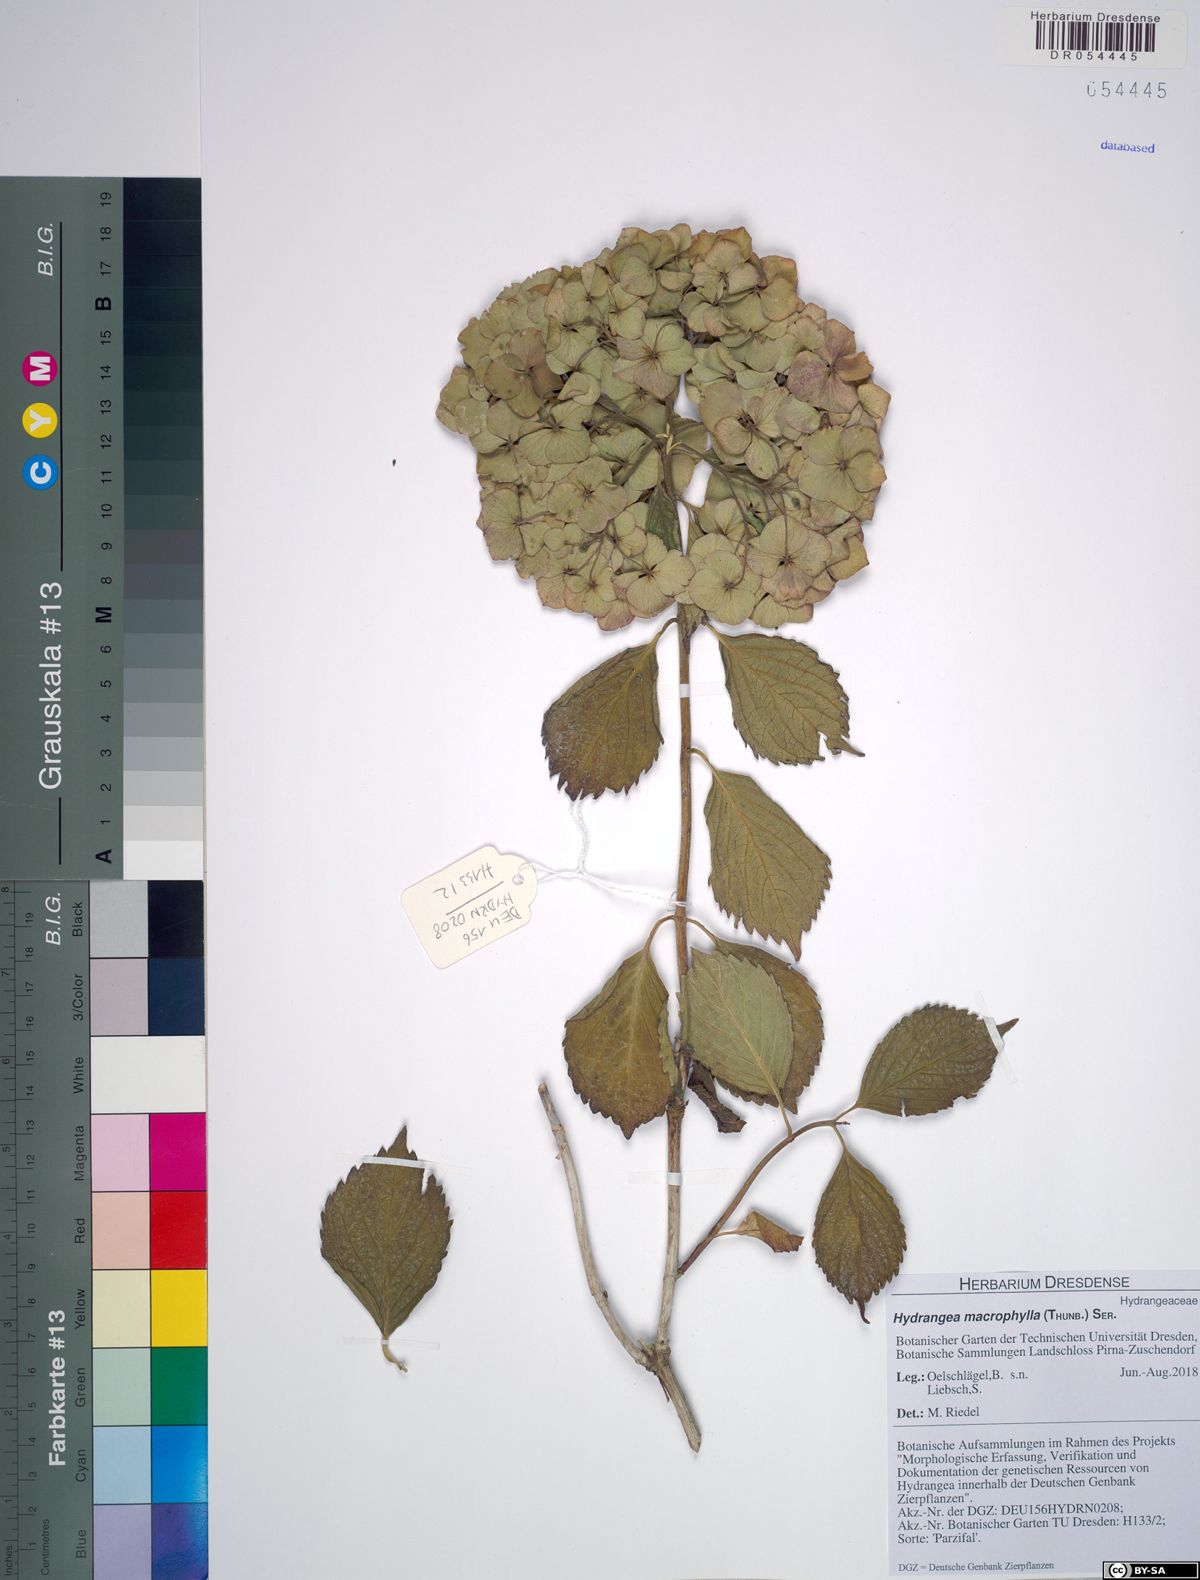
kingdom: Plantae
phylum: Tracheophyta
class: Magnoliopsida
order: Cornales
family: Hydrangeaceae
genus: Hydrangea
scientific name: Hydrangea macrophylla
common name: Hydrangea
